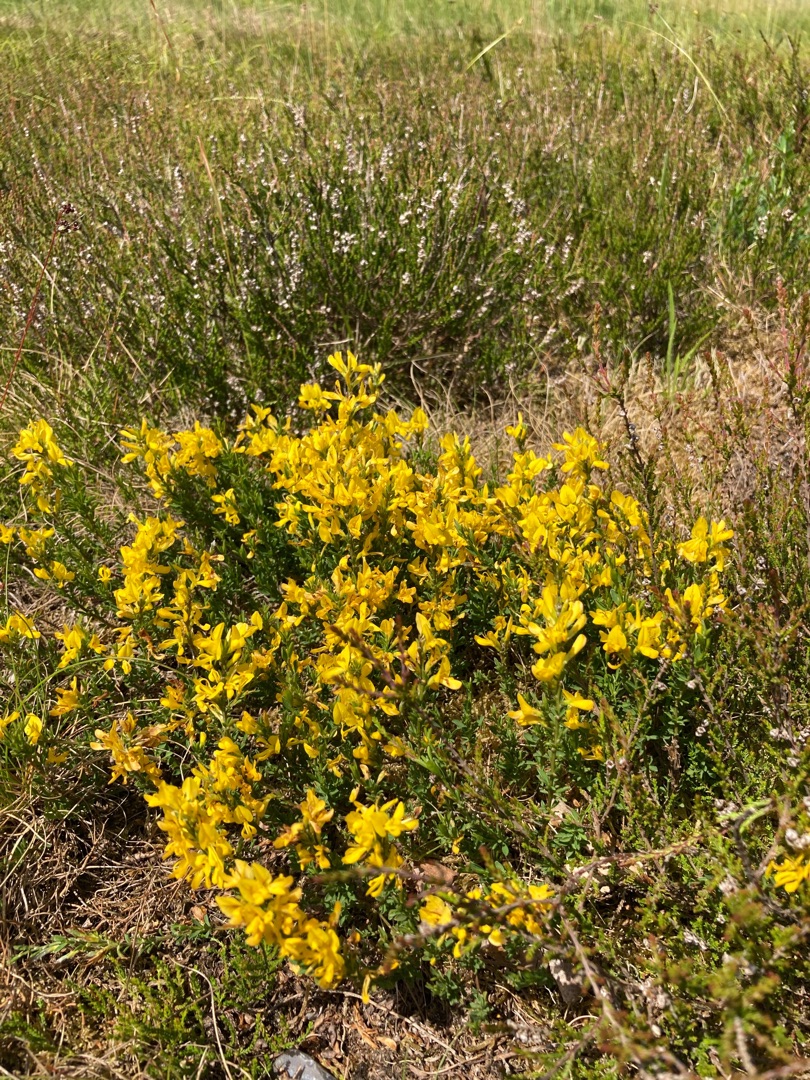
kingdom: Plantae
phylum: Tracheophyta
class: Magnoliopsida
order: Fabales
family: Fabaceae
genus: Genista
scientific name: Genista tinctoria
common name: Farve-visse
